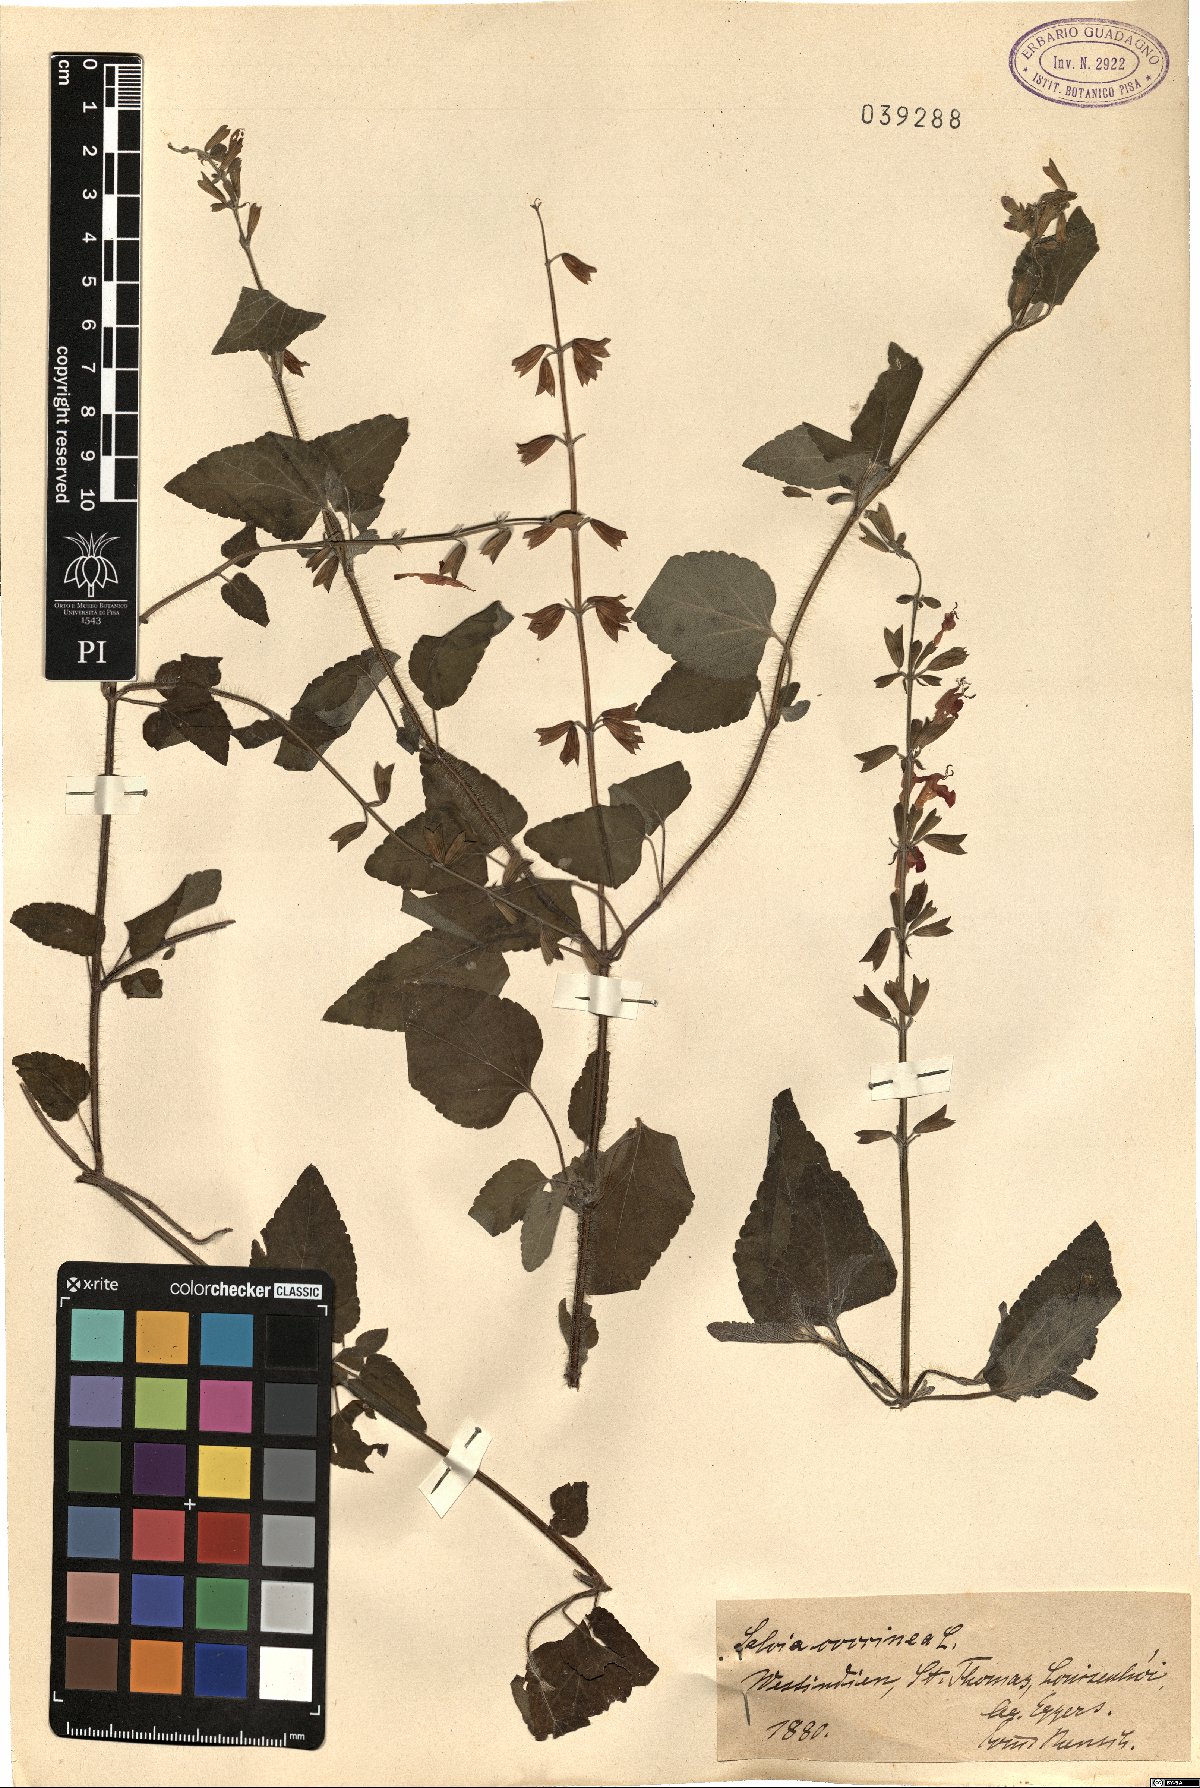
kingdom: Plantae
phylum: Tracheophyta
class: Magnoliopsida
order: Lamiales
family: Lamiaceae
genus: Salvia
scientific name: Salvia coccinea
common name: Blood sage
